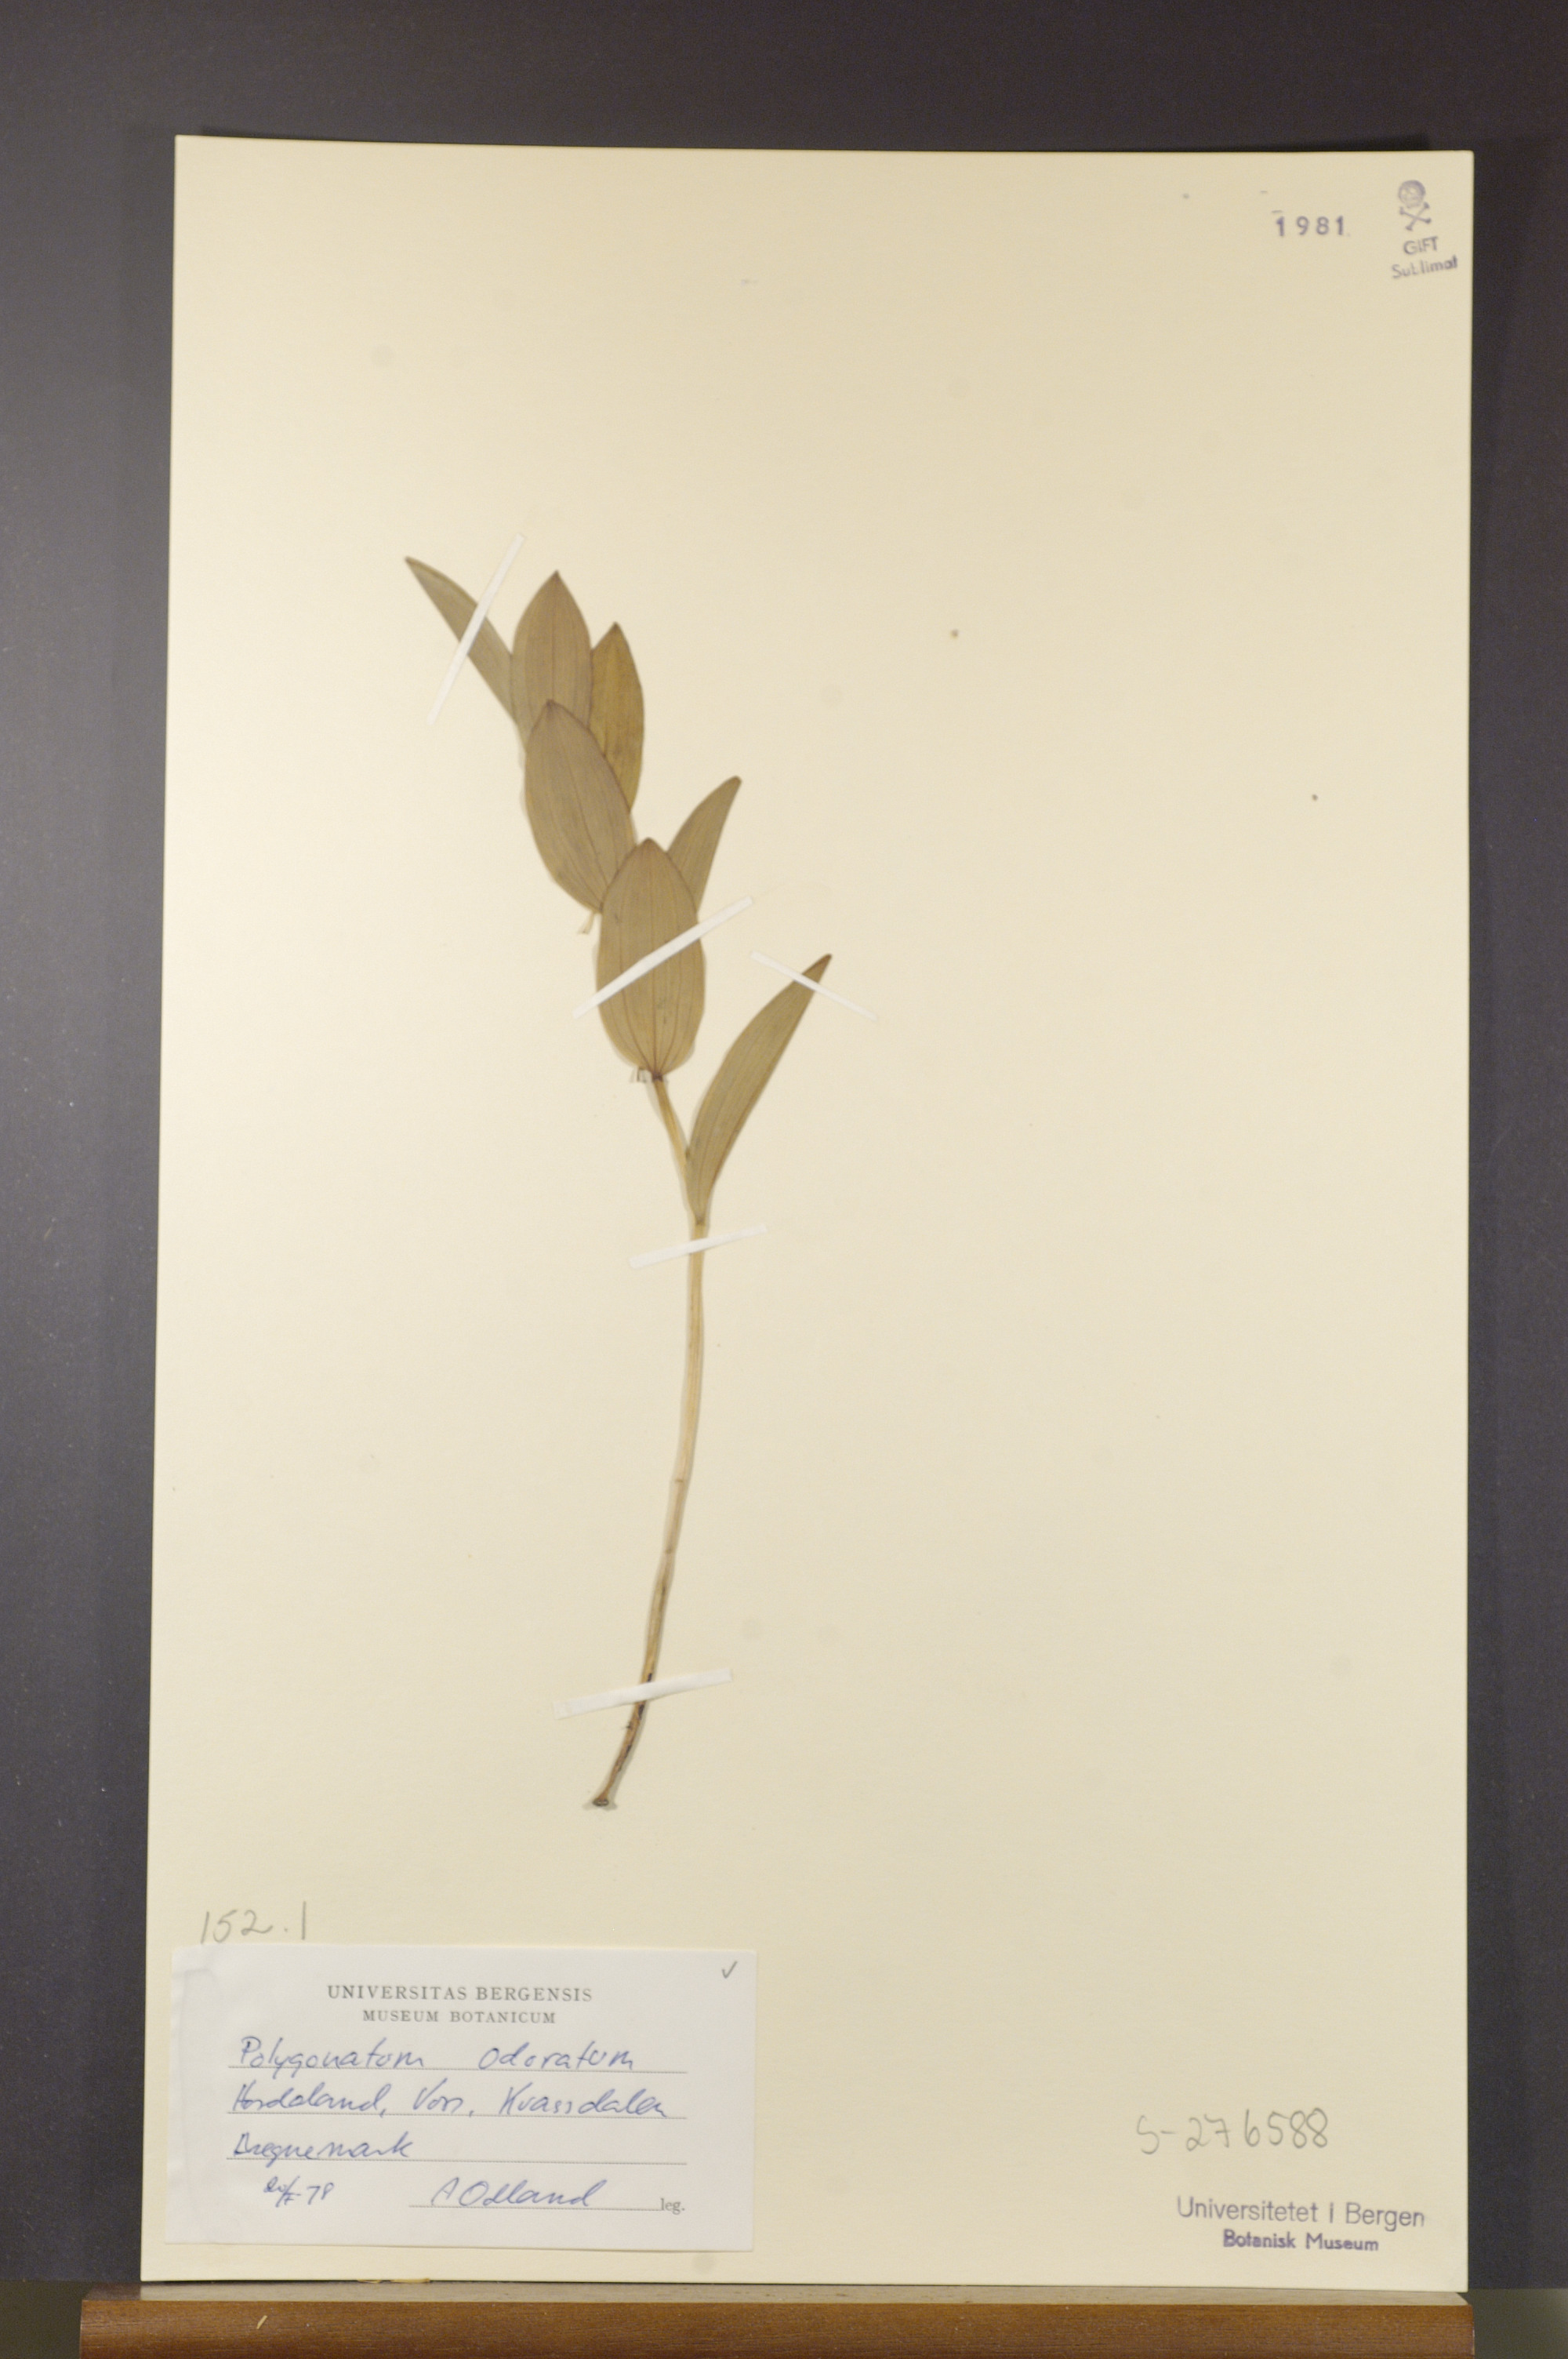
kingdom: Plantae
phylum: Tracheophyta
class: Liliopsida
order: Asparagales
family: Asparagaceae
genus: Polygonatum
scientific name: Polygonatum odoratum
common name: Angular solomon's-seal
